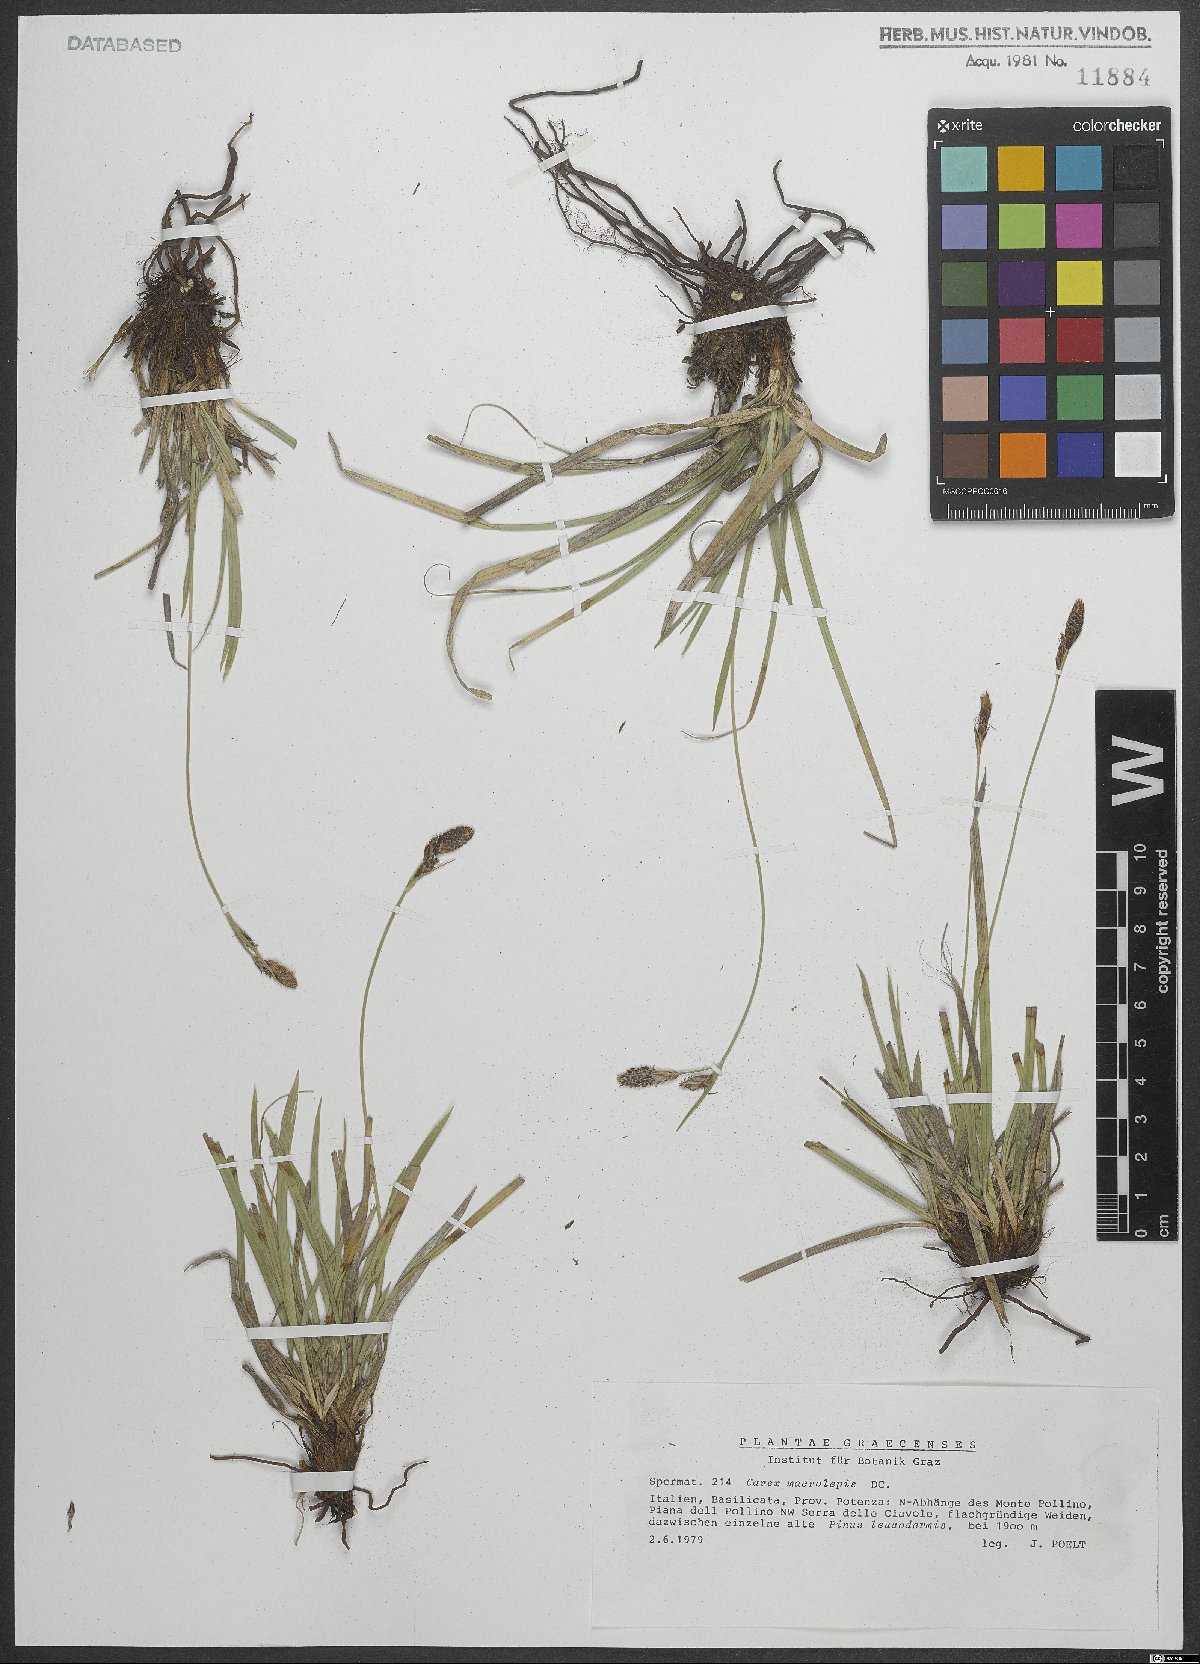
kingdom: Plantae
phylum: Tracheophyta
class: Liliopsida
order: Poales
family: Cyperaceae
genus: Carex
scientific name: Carex macrolepis
